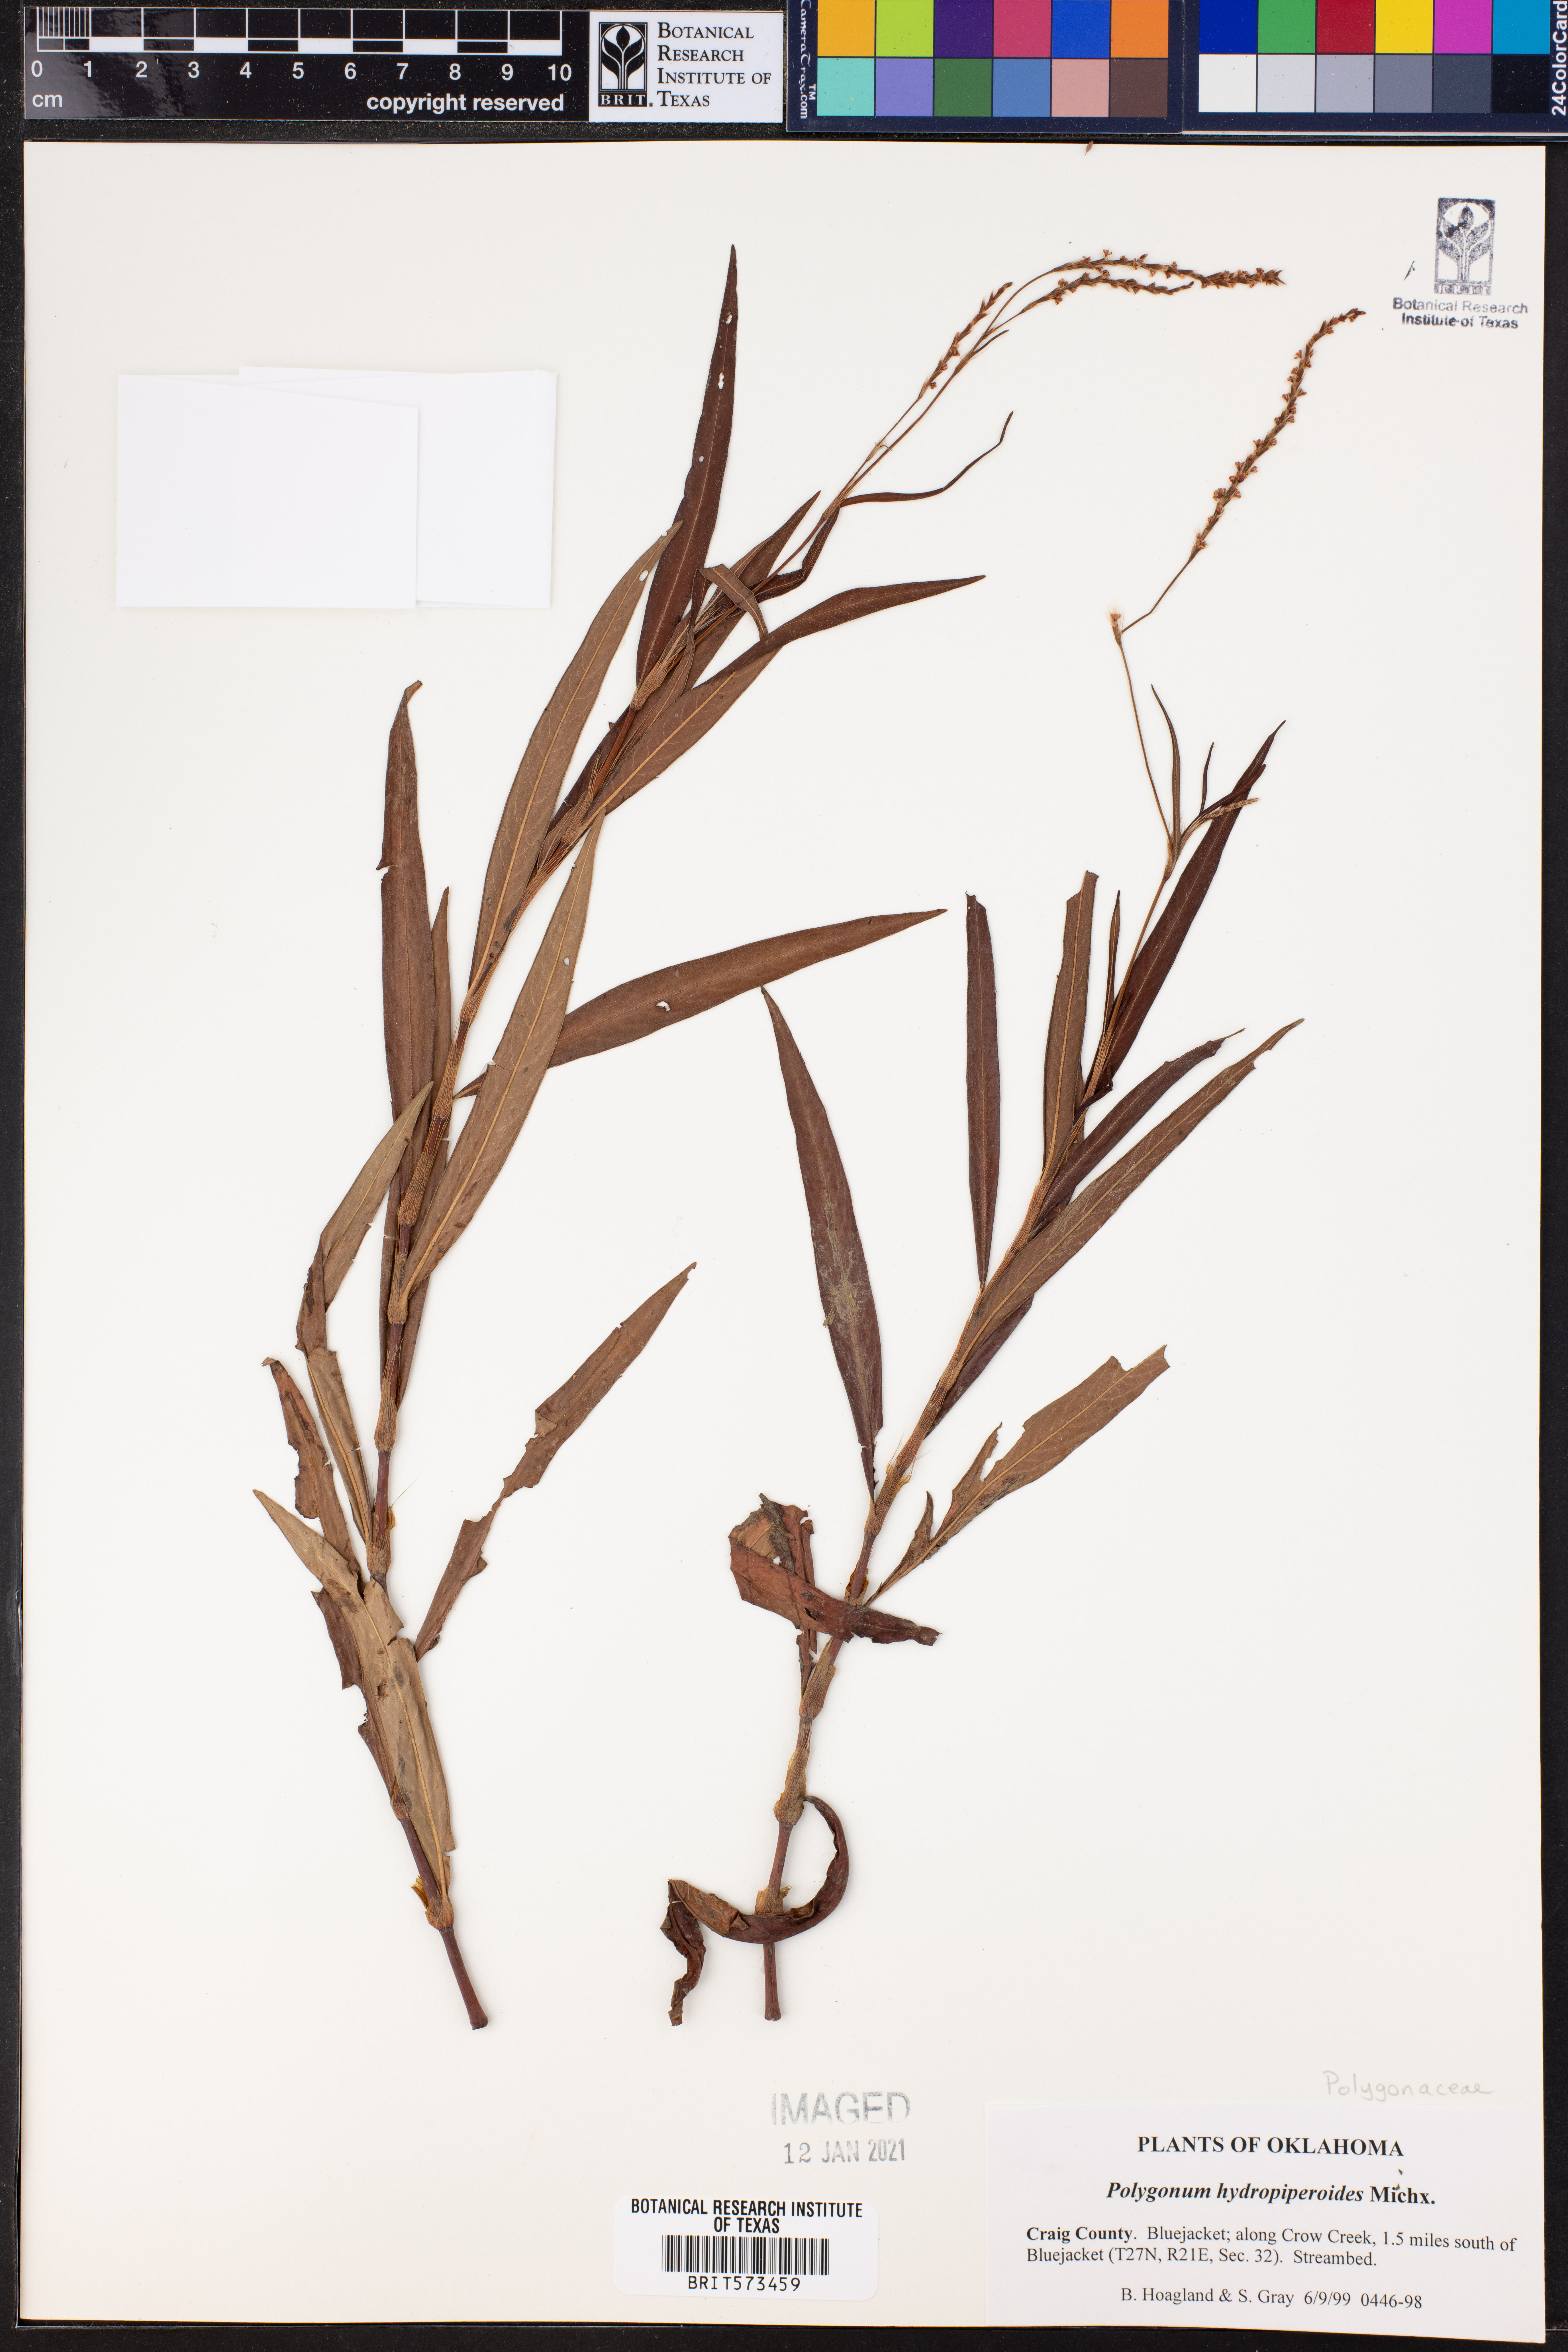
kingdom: Plantae
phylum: Tracheophyta
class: Magnoliopsida
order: Caryophyllales
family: Polygonaceae
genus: Persicaria
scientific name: Persicaria hydropiperoides
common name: Swamp smartweed
